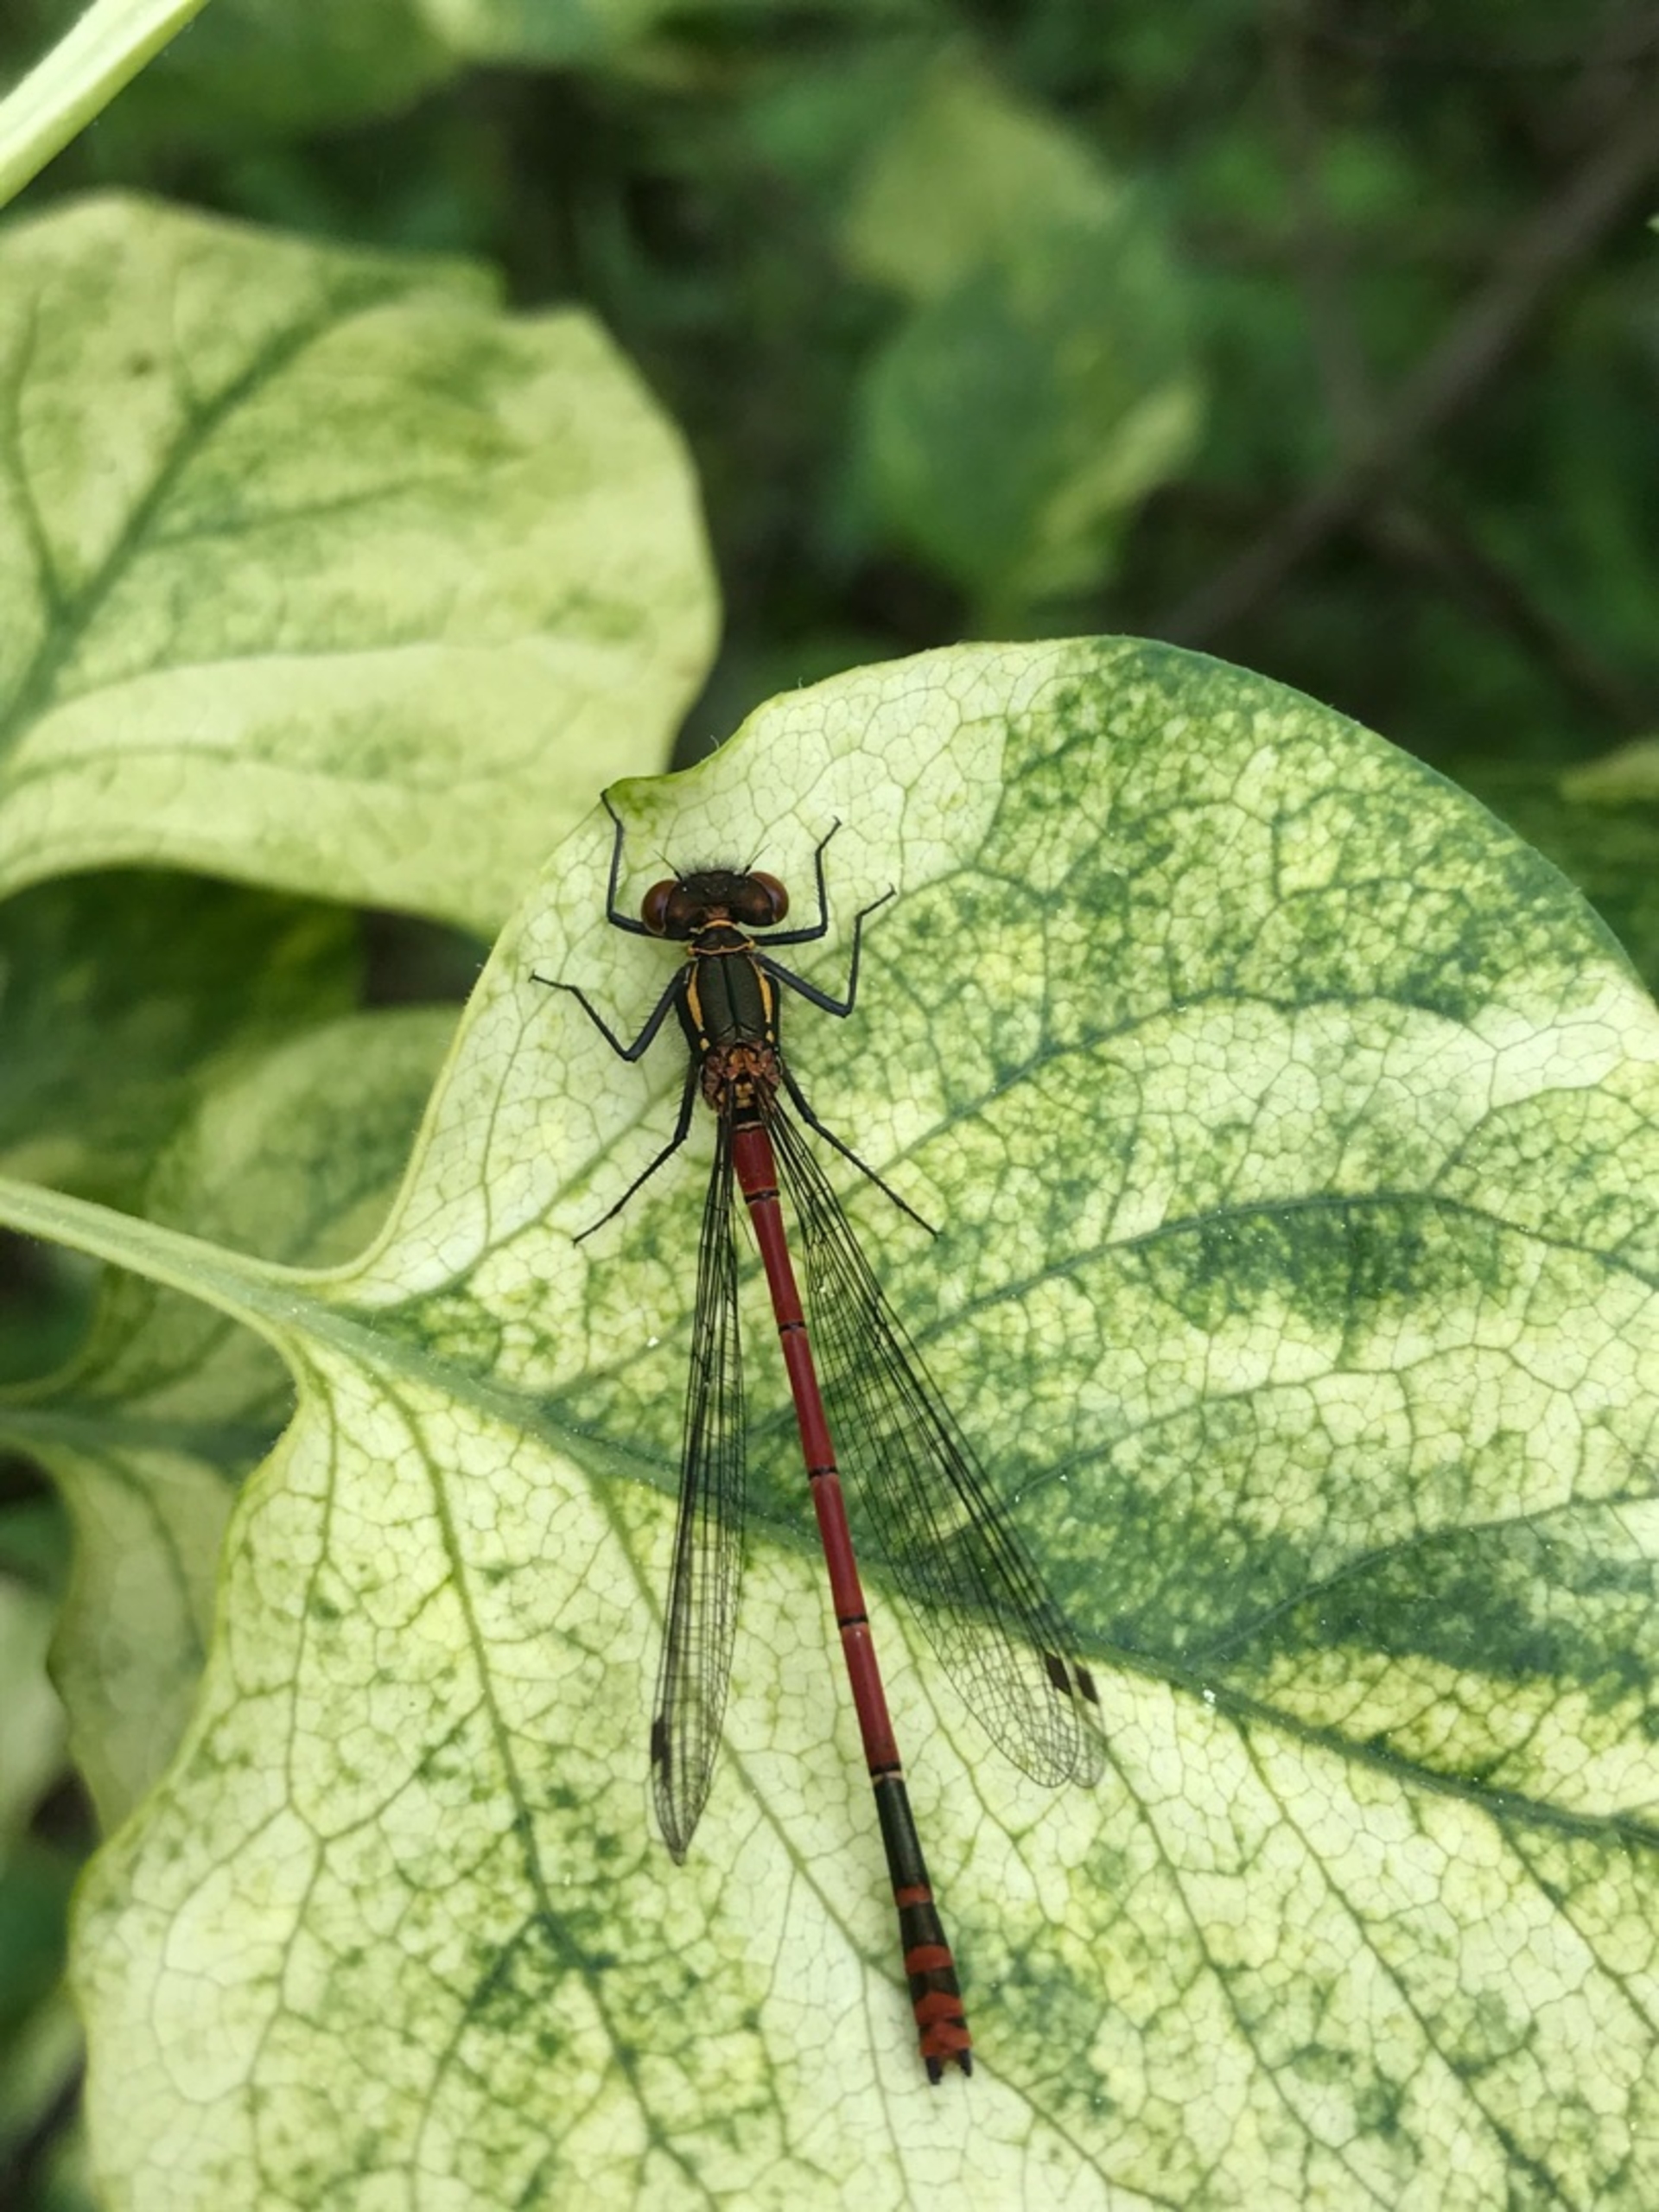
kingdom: Animalia
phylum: Arthropoda
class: Insecta
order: Odonata
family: Coenagrionidae
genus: Pyrrhosoma
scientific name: Pyrrhosoma nymphula
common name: Rød vandnymfe
